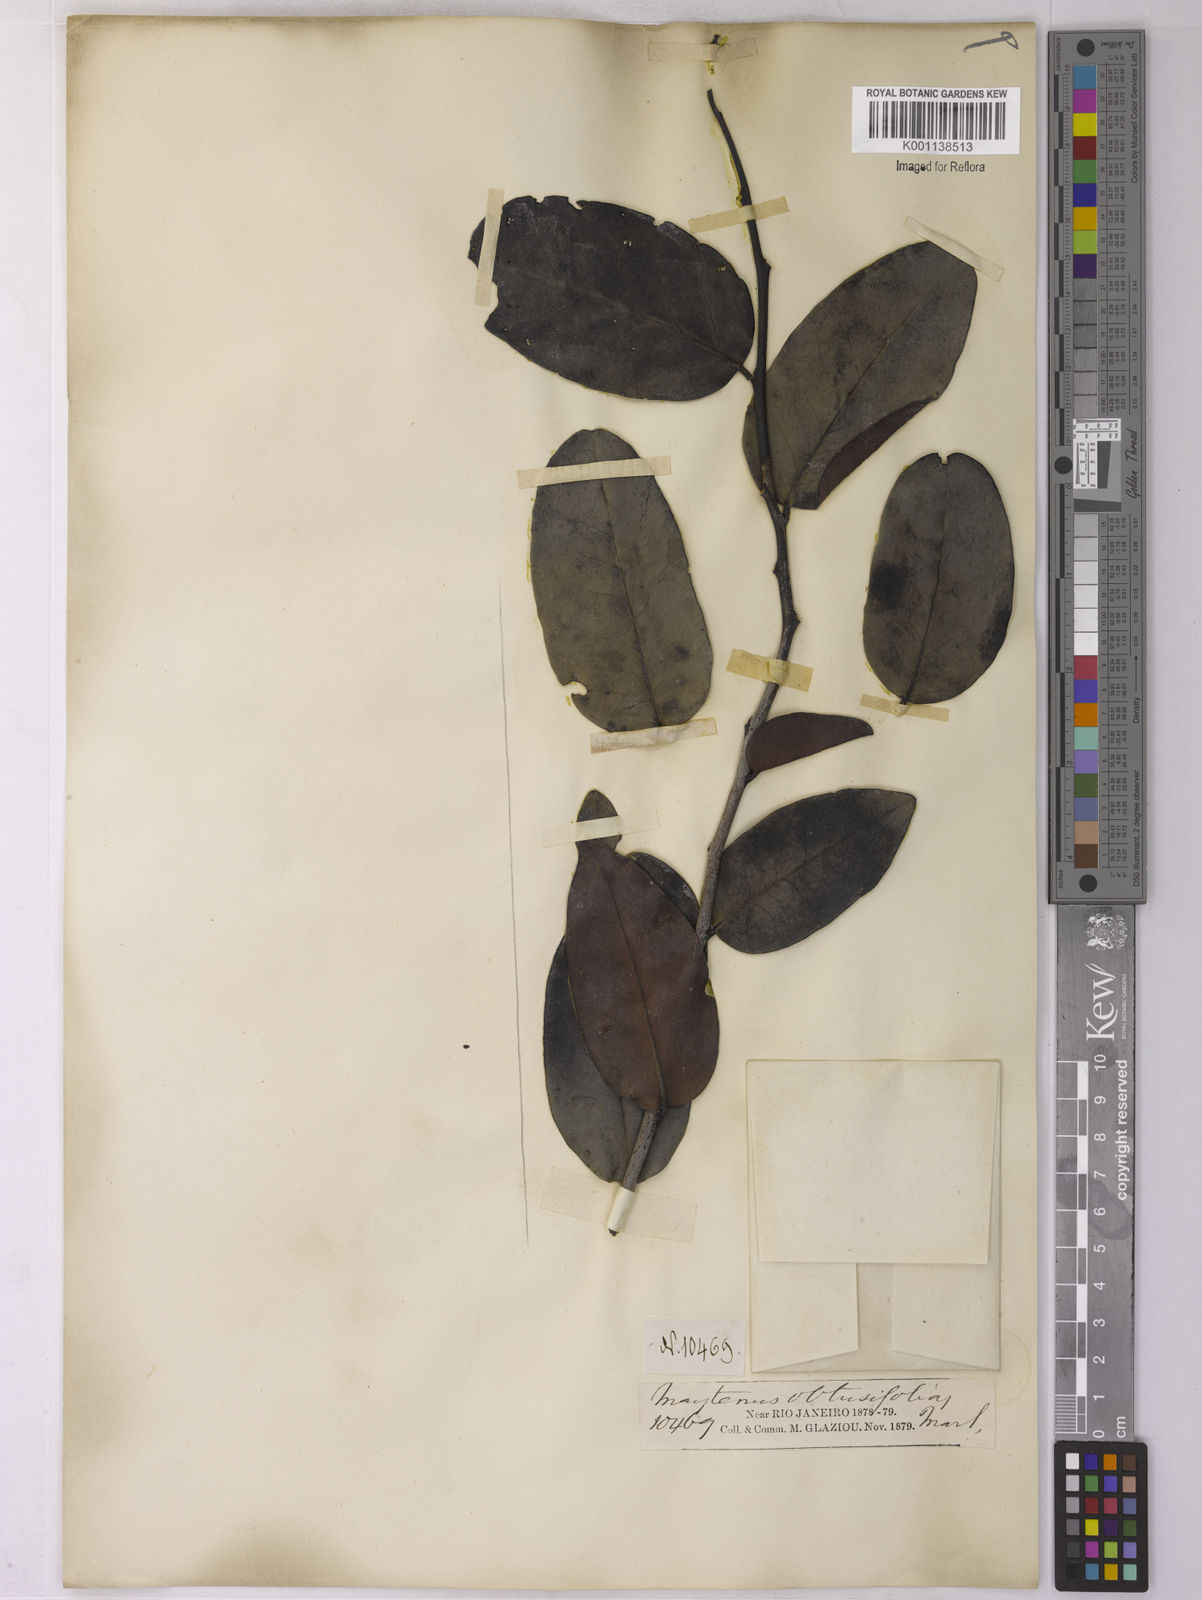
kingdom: Plantae
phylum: Tracheophyta
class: Magnoliopsida
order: Celastrales
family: Celastraceae
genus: Monteverdia
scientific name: Monteverdia obtusifolia
